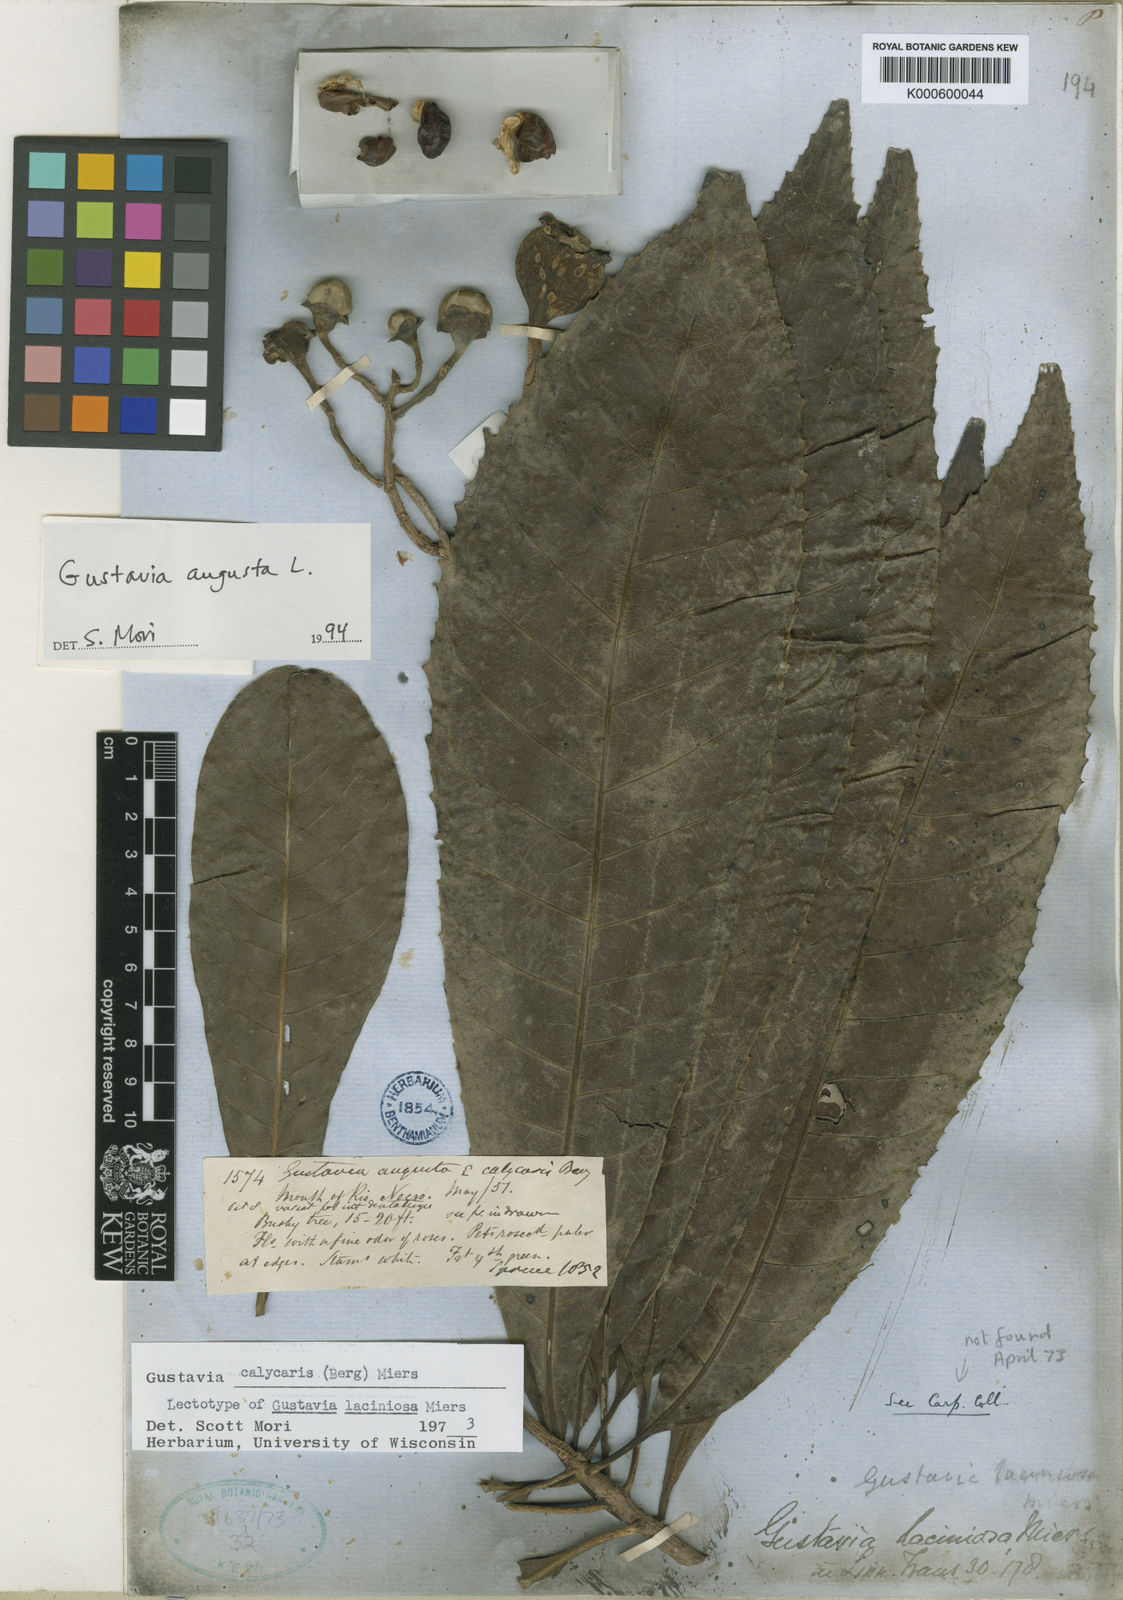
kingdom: Plantae
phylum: Tracheophyta
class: Magnoliopsida
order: Ericales
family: Lecythidaceae
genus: Gustavia
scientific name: Gustavia augusta
